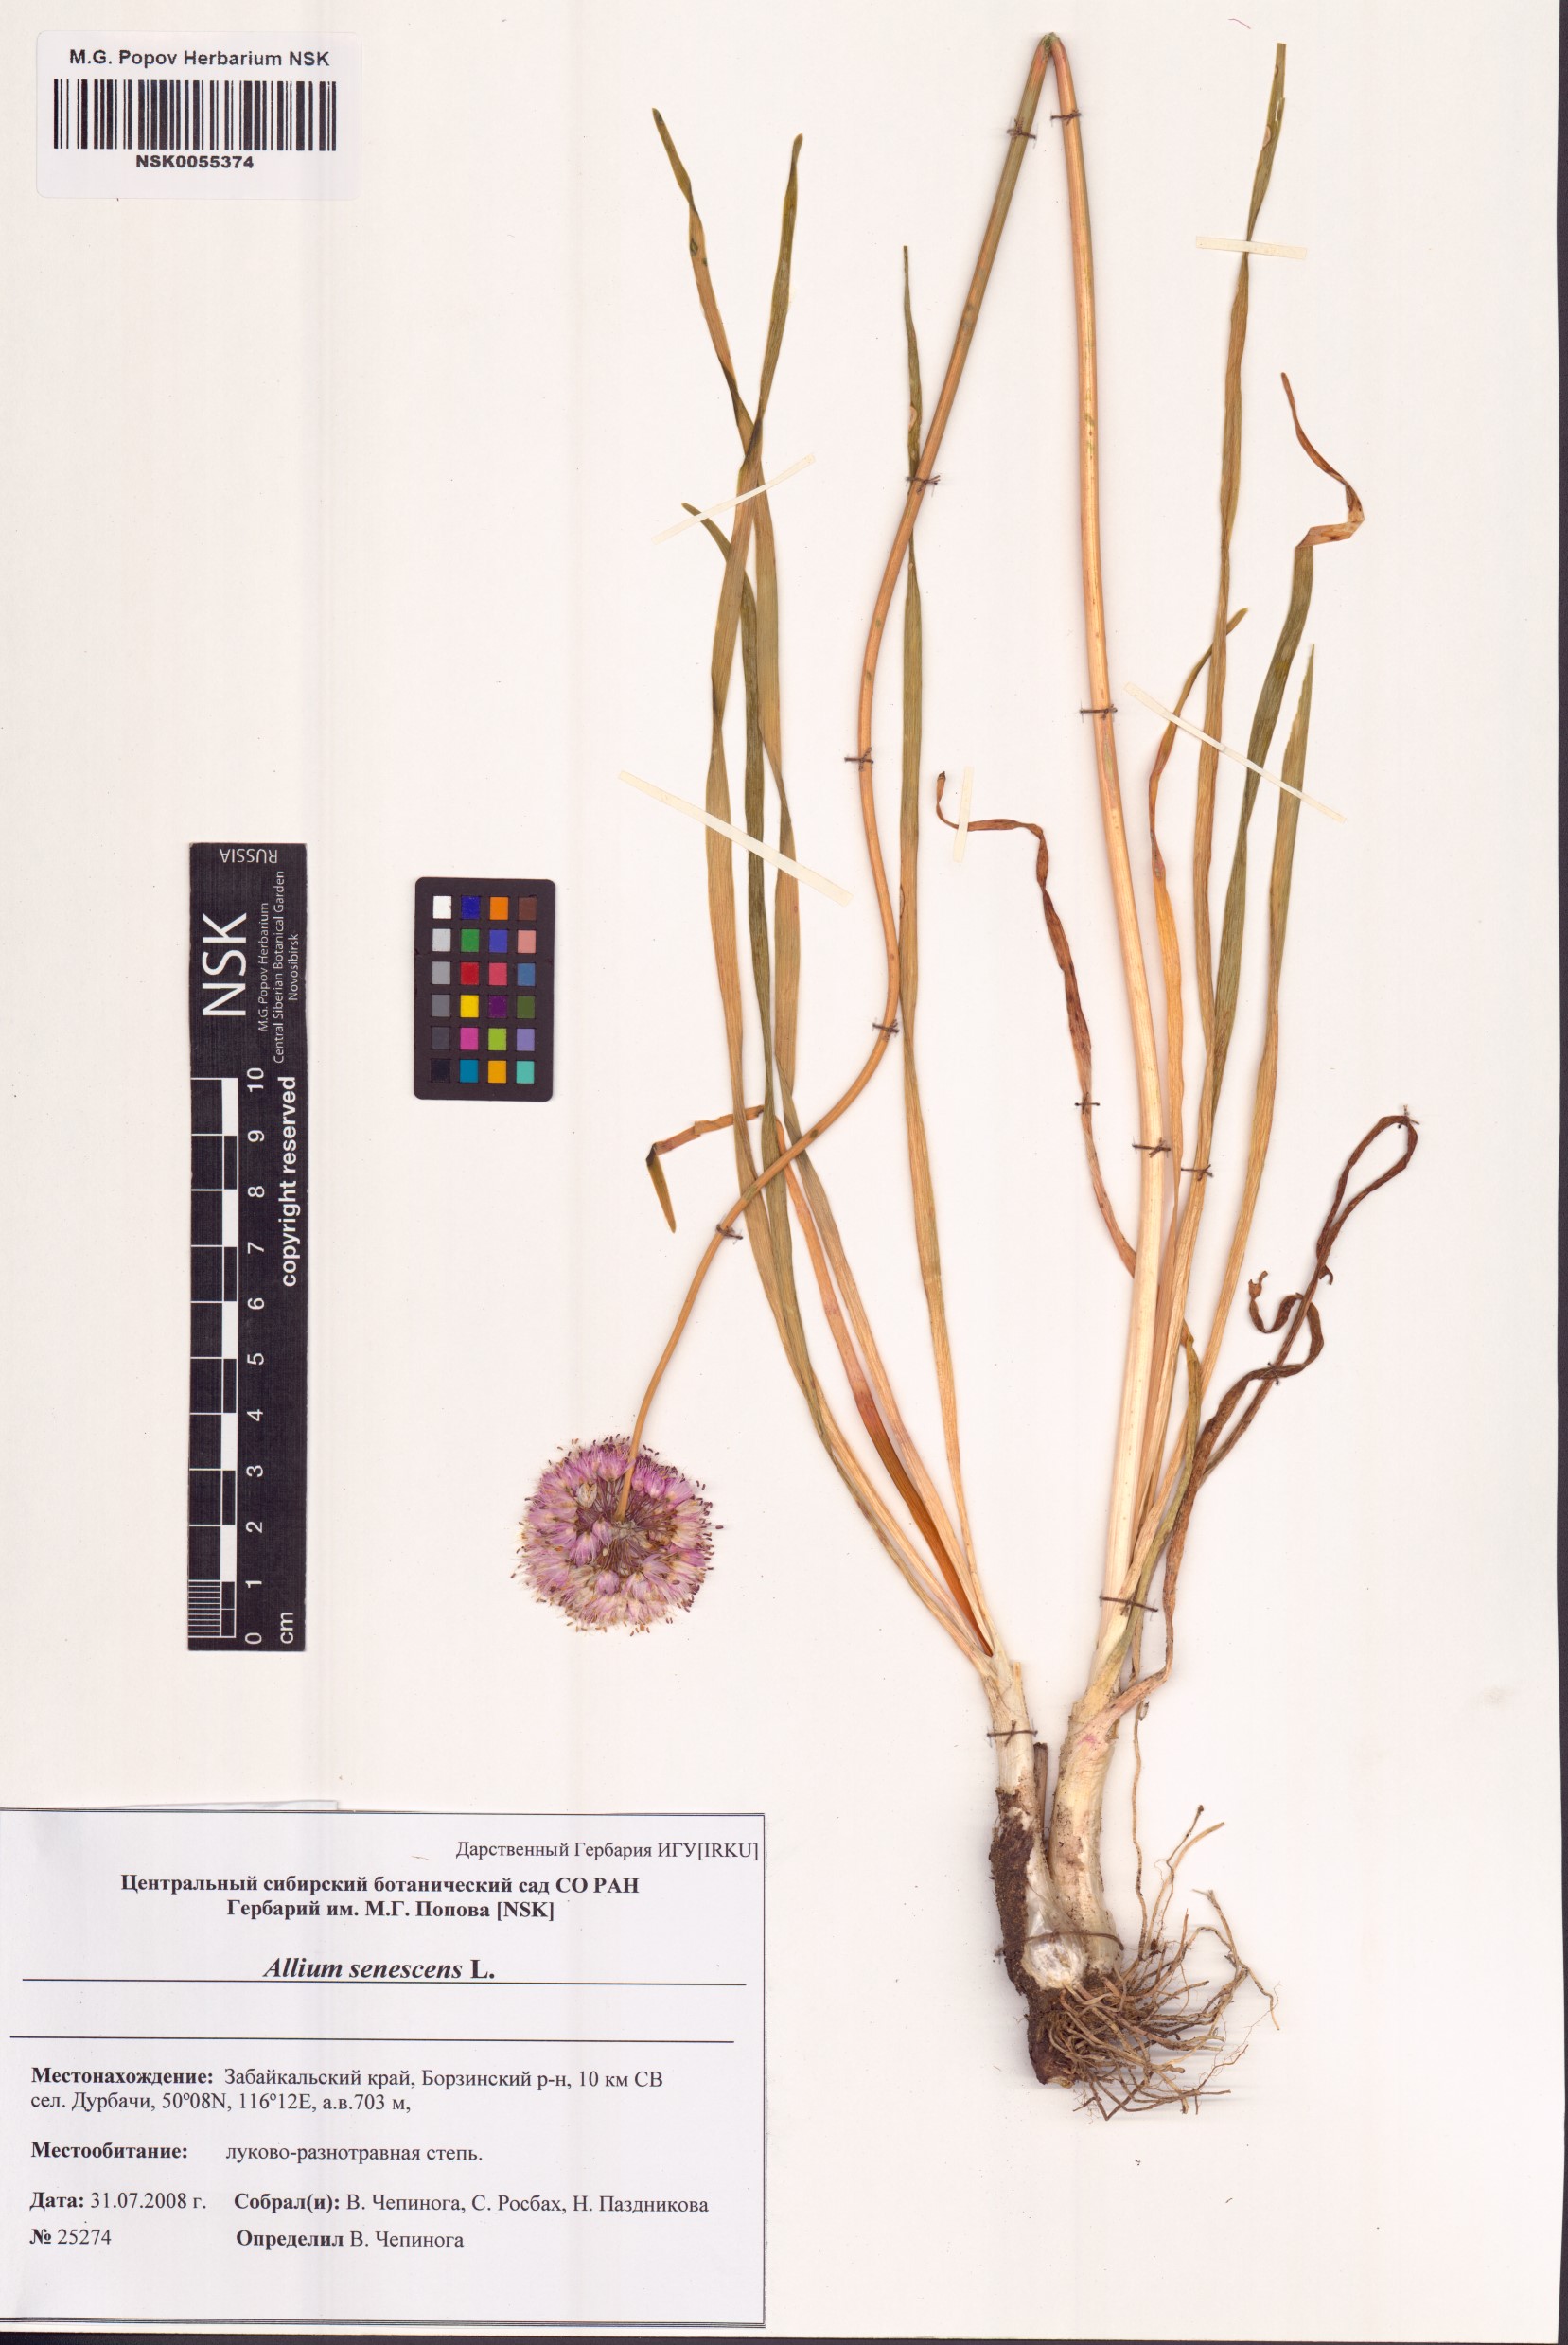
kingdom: Plantae
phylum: Tracheophyta
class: Liliopsida
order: Asparagales
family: Amaryllidaceae
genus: Allium
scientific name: Allium senescens
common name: German garlic
